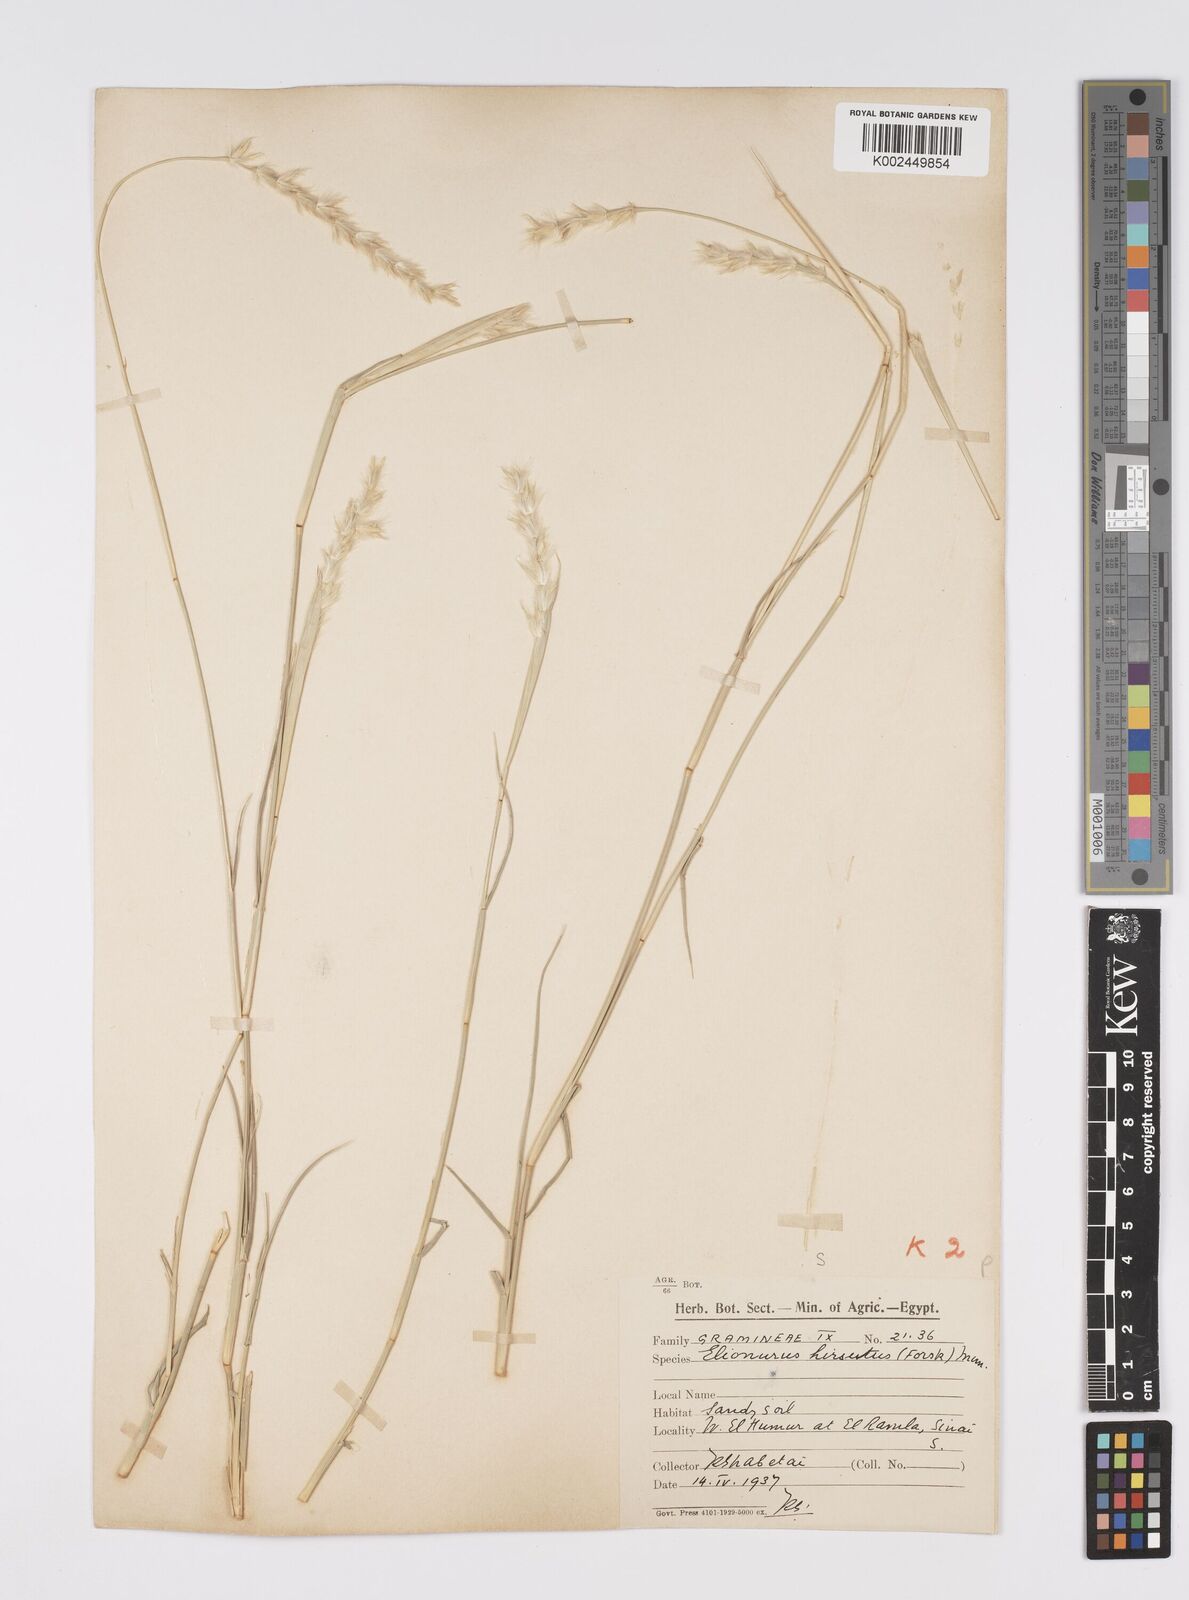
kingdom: Plantae
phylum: Tracheophyta
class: Liliopsida
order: Poales
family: Poaceae
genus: Lasiurus
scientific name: Lasiurus scindicus
